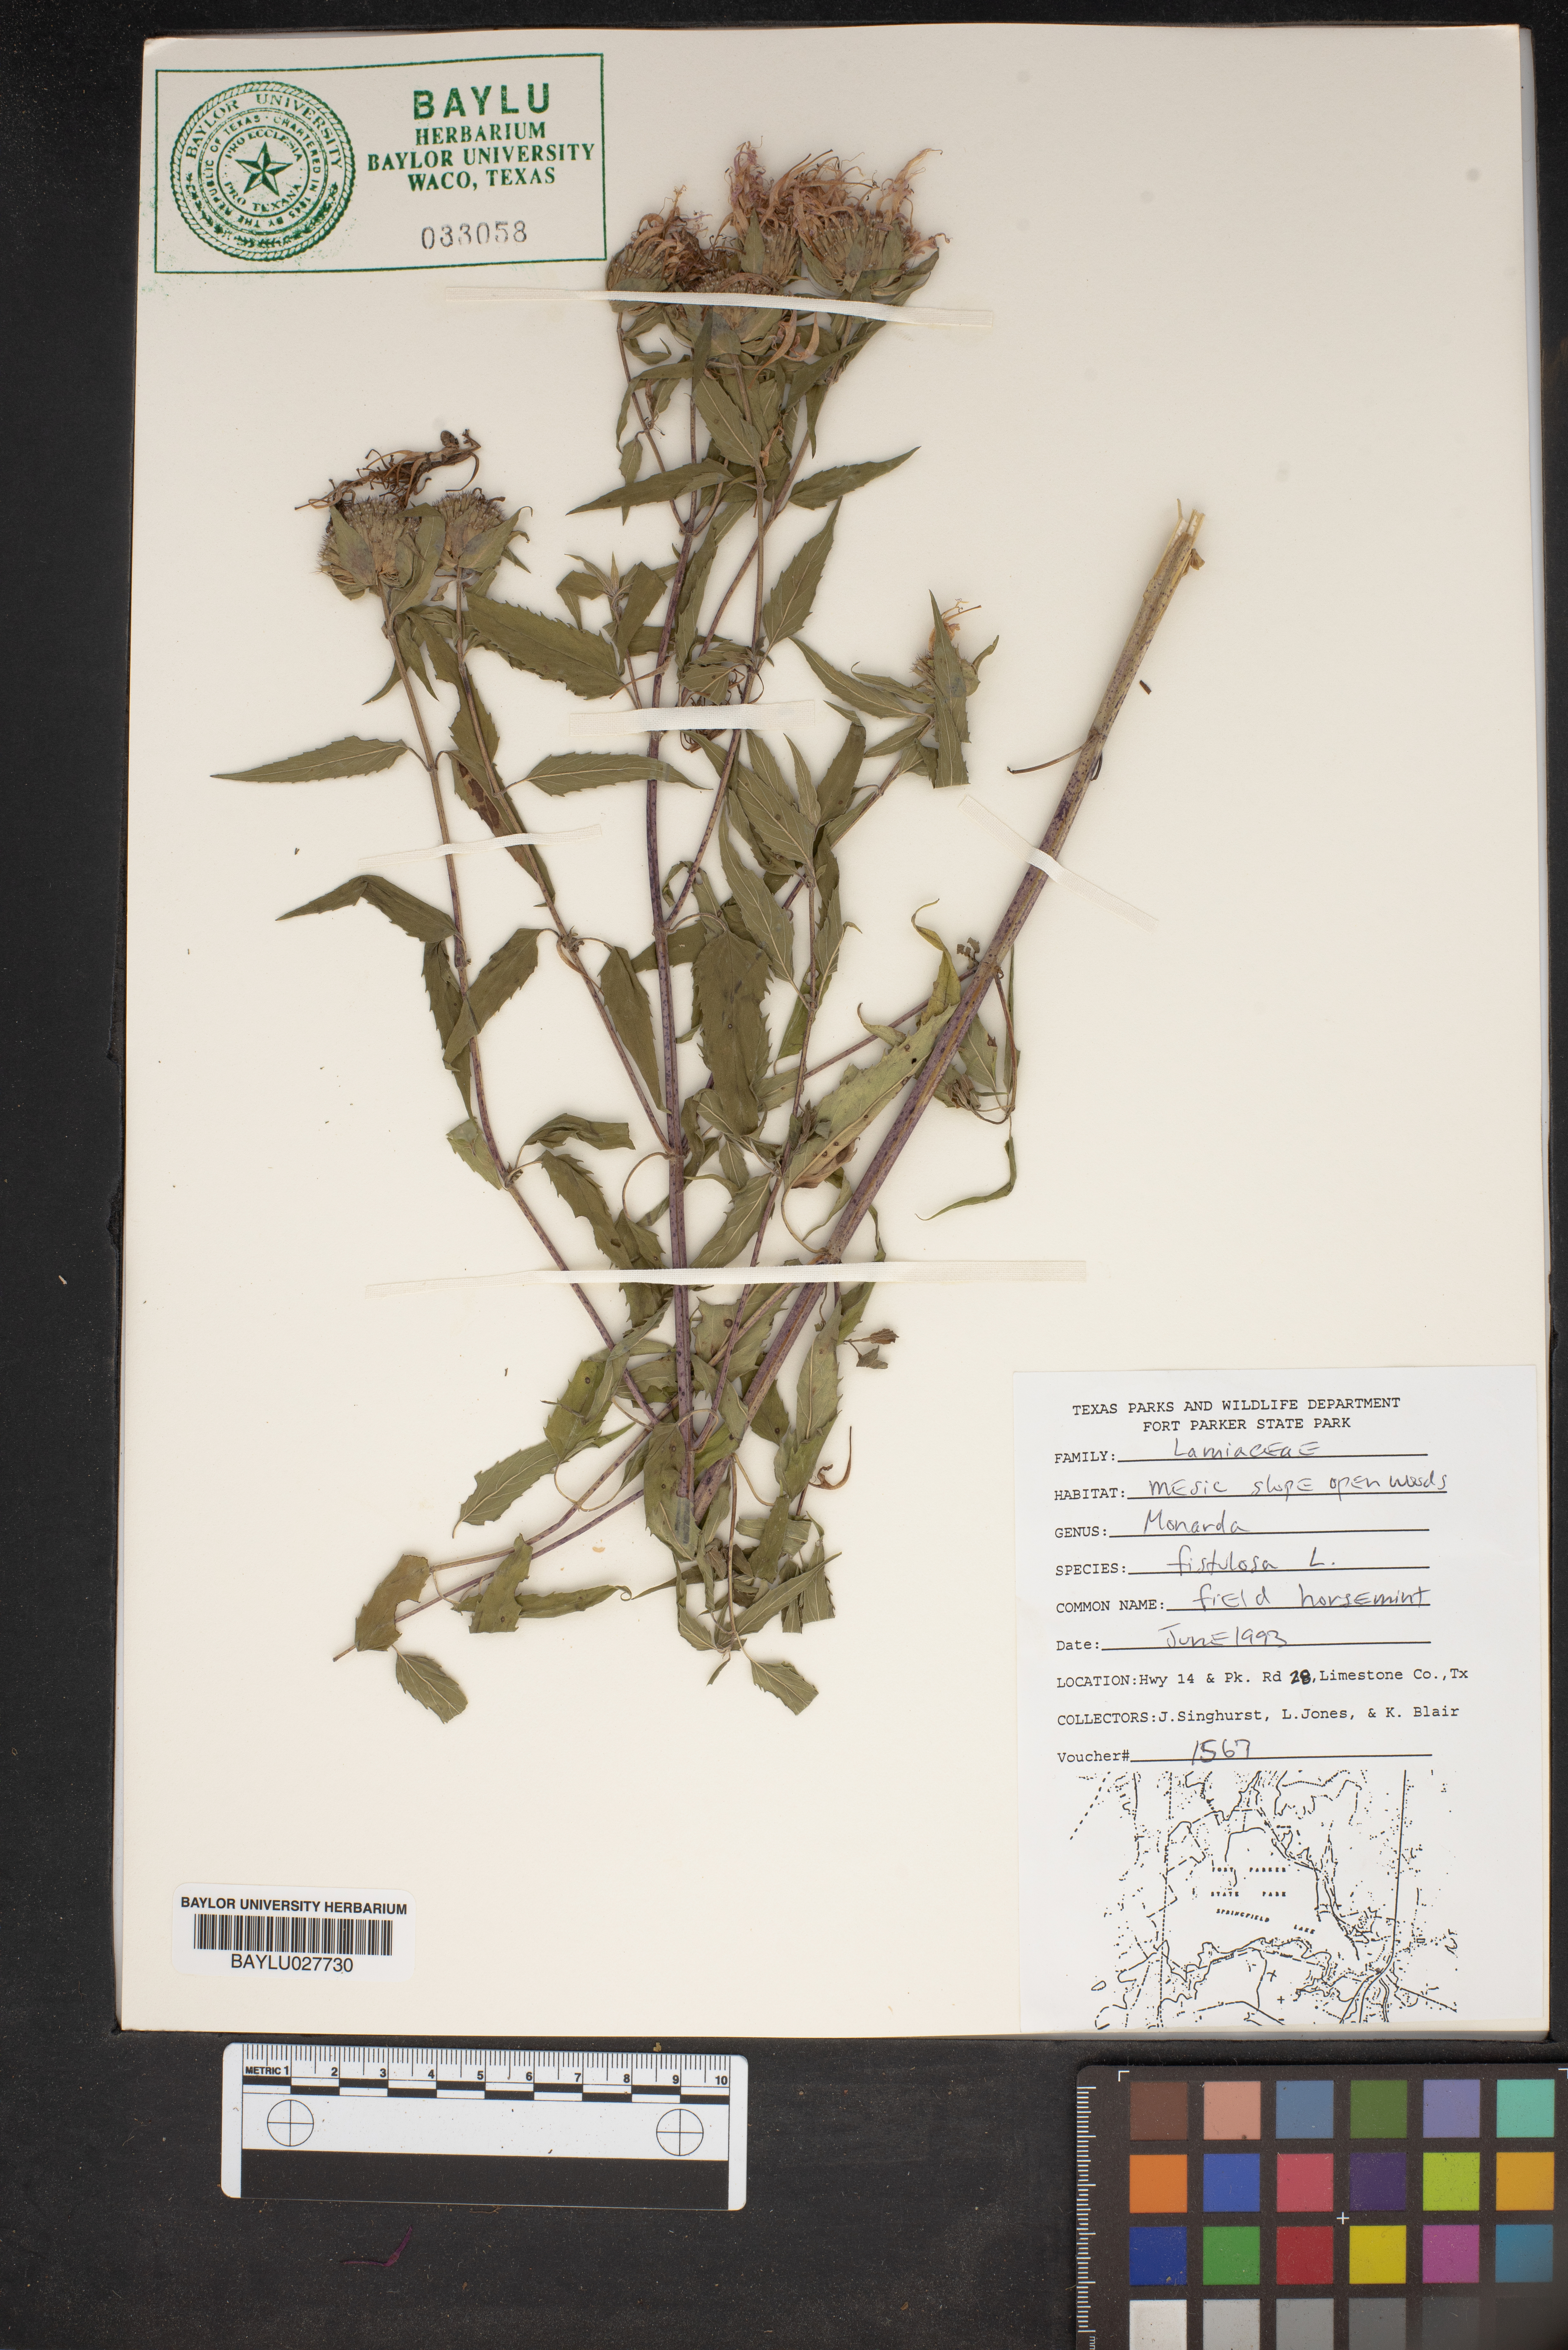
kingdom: Plantae
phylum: Tracheophyta
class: Magnoliopsida
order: Lamiales
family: Lamiaceae
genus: Monarda
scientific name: Monarda fistulosa
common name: Purple beebalm
